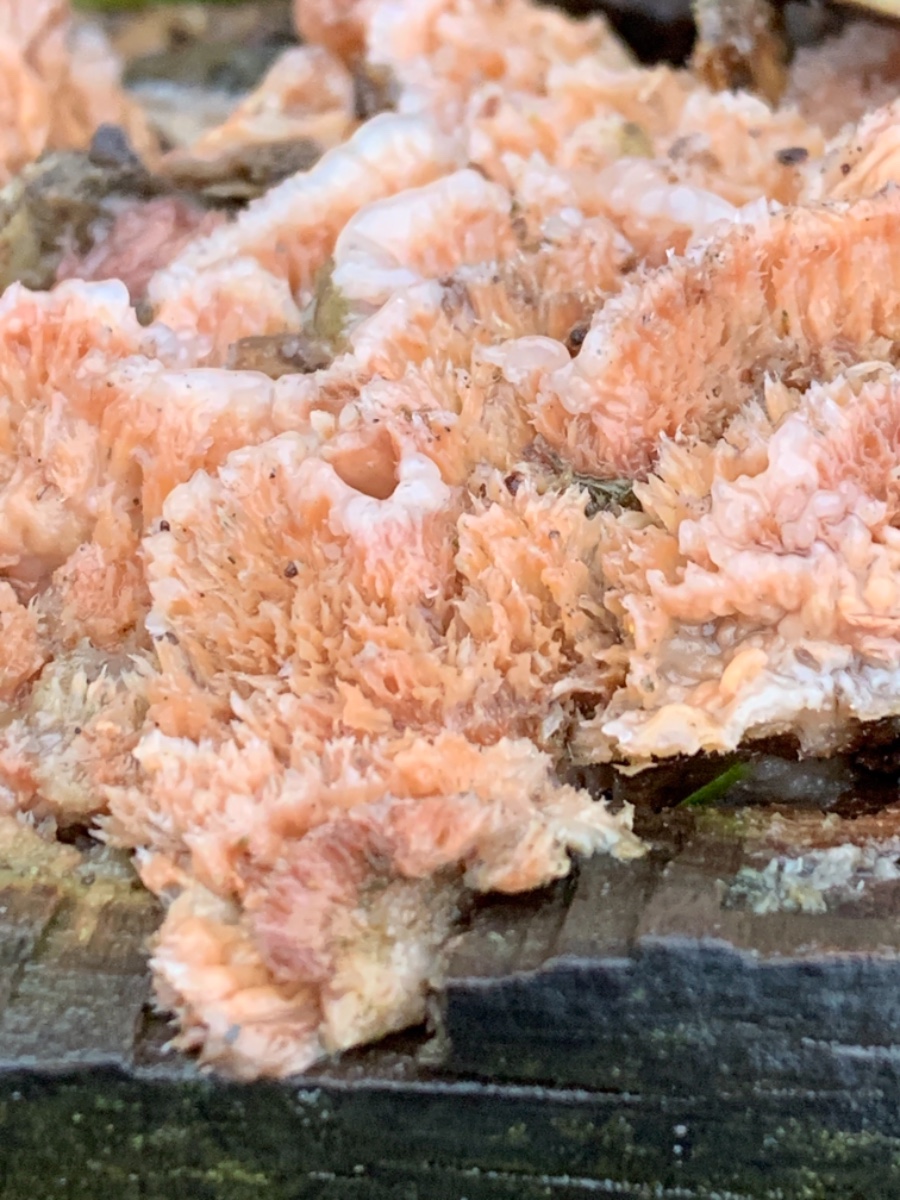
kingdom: Fungi
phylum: Basidiomycota
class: Agaricomycetes
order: Polyporales
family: Meruliaceae
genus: Phlebia
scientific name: Phlebia tremellosa
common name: bævrende åresvamp
